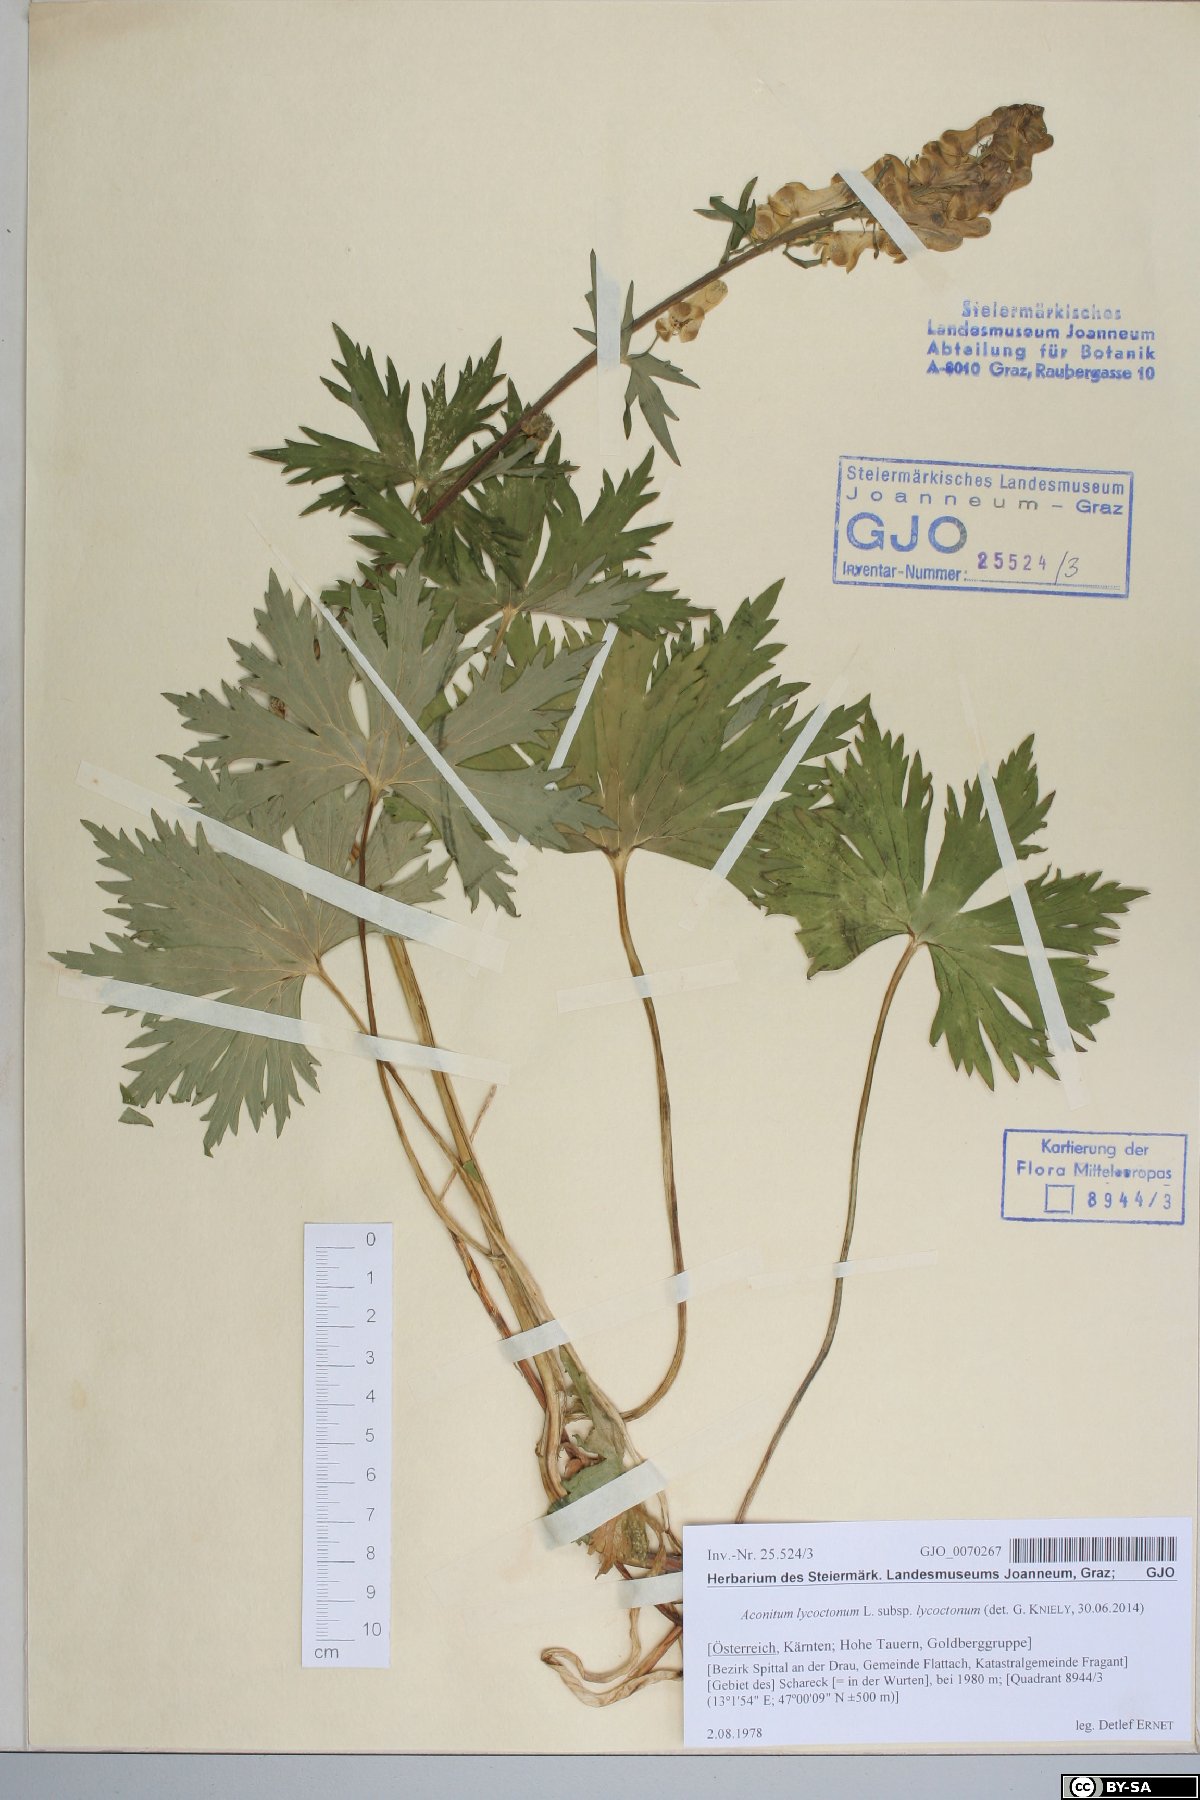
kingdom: Plantae
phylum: Tracheophyta
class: Magnoliopsida
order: Ranunculales
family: Ranunculaceae
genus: Aconitum
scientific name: Aconitum lycoctonum
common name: Wolf's-bane
